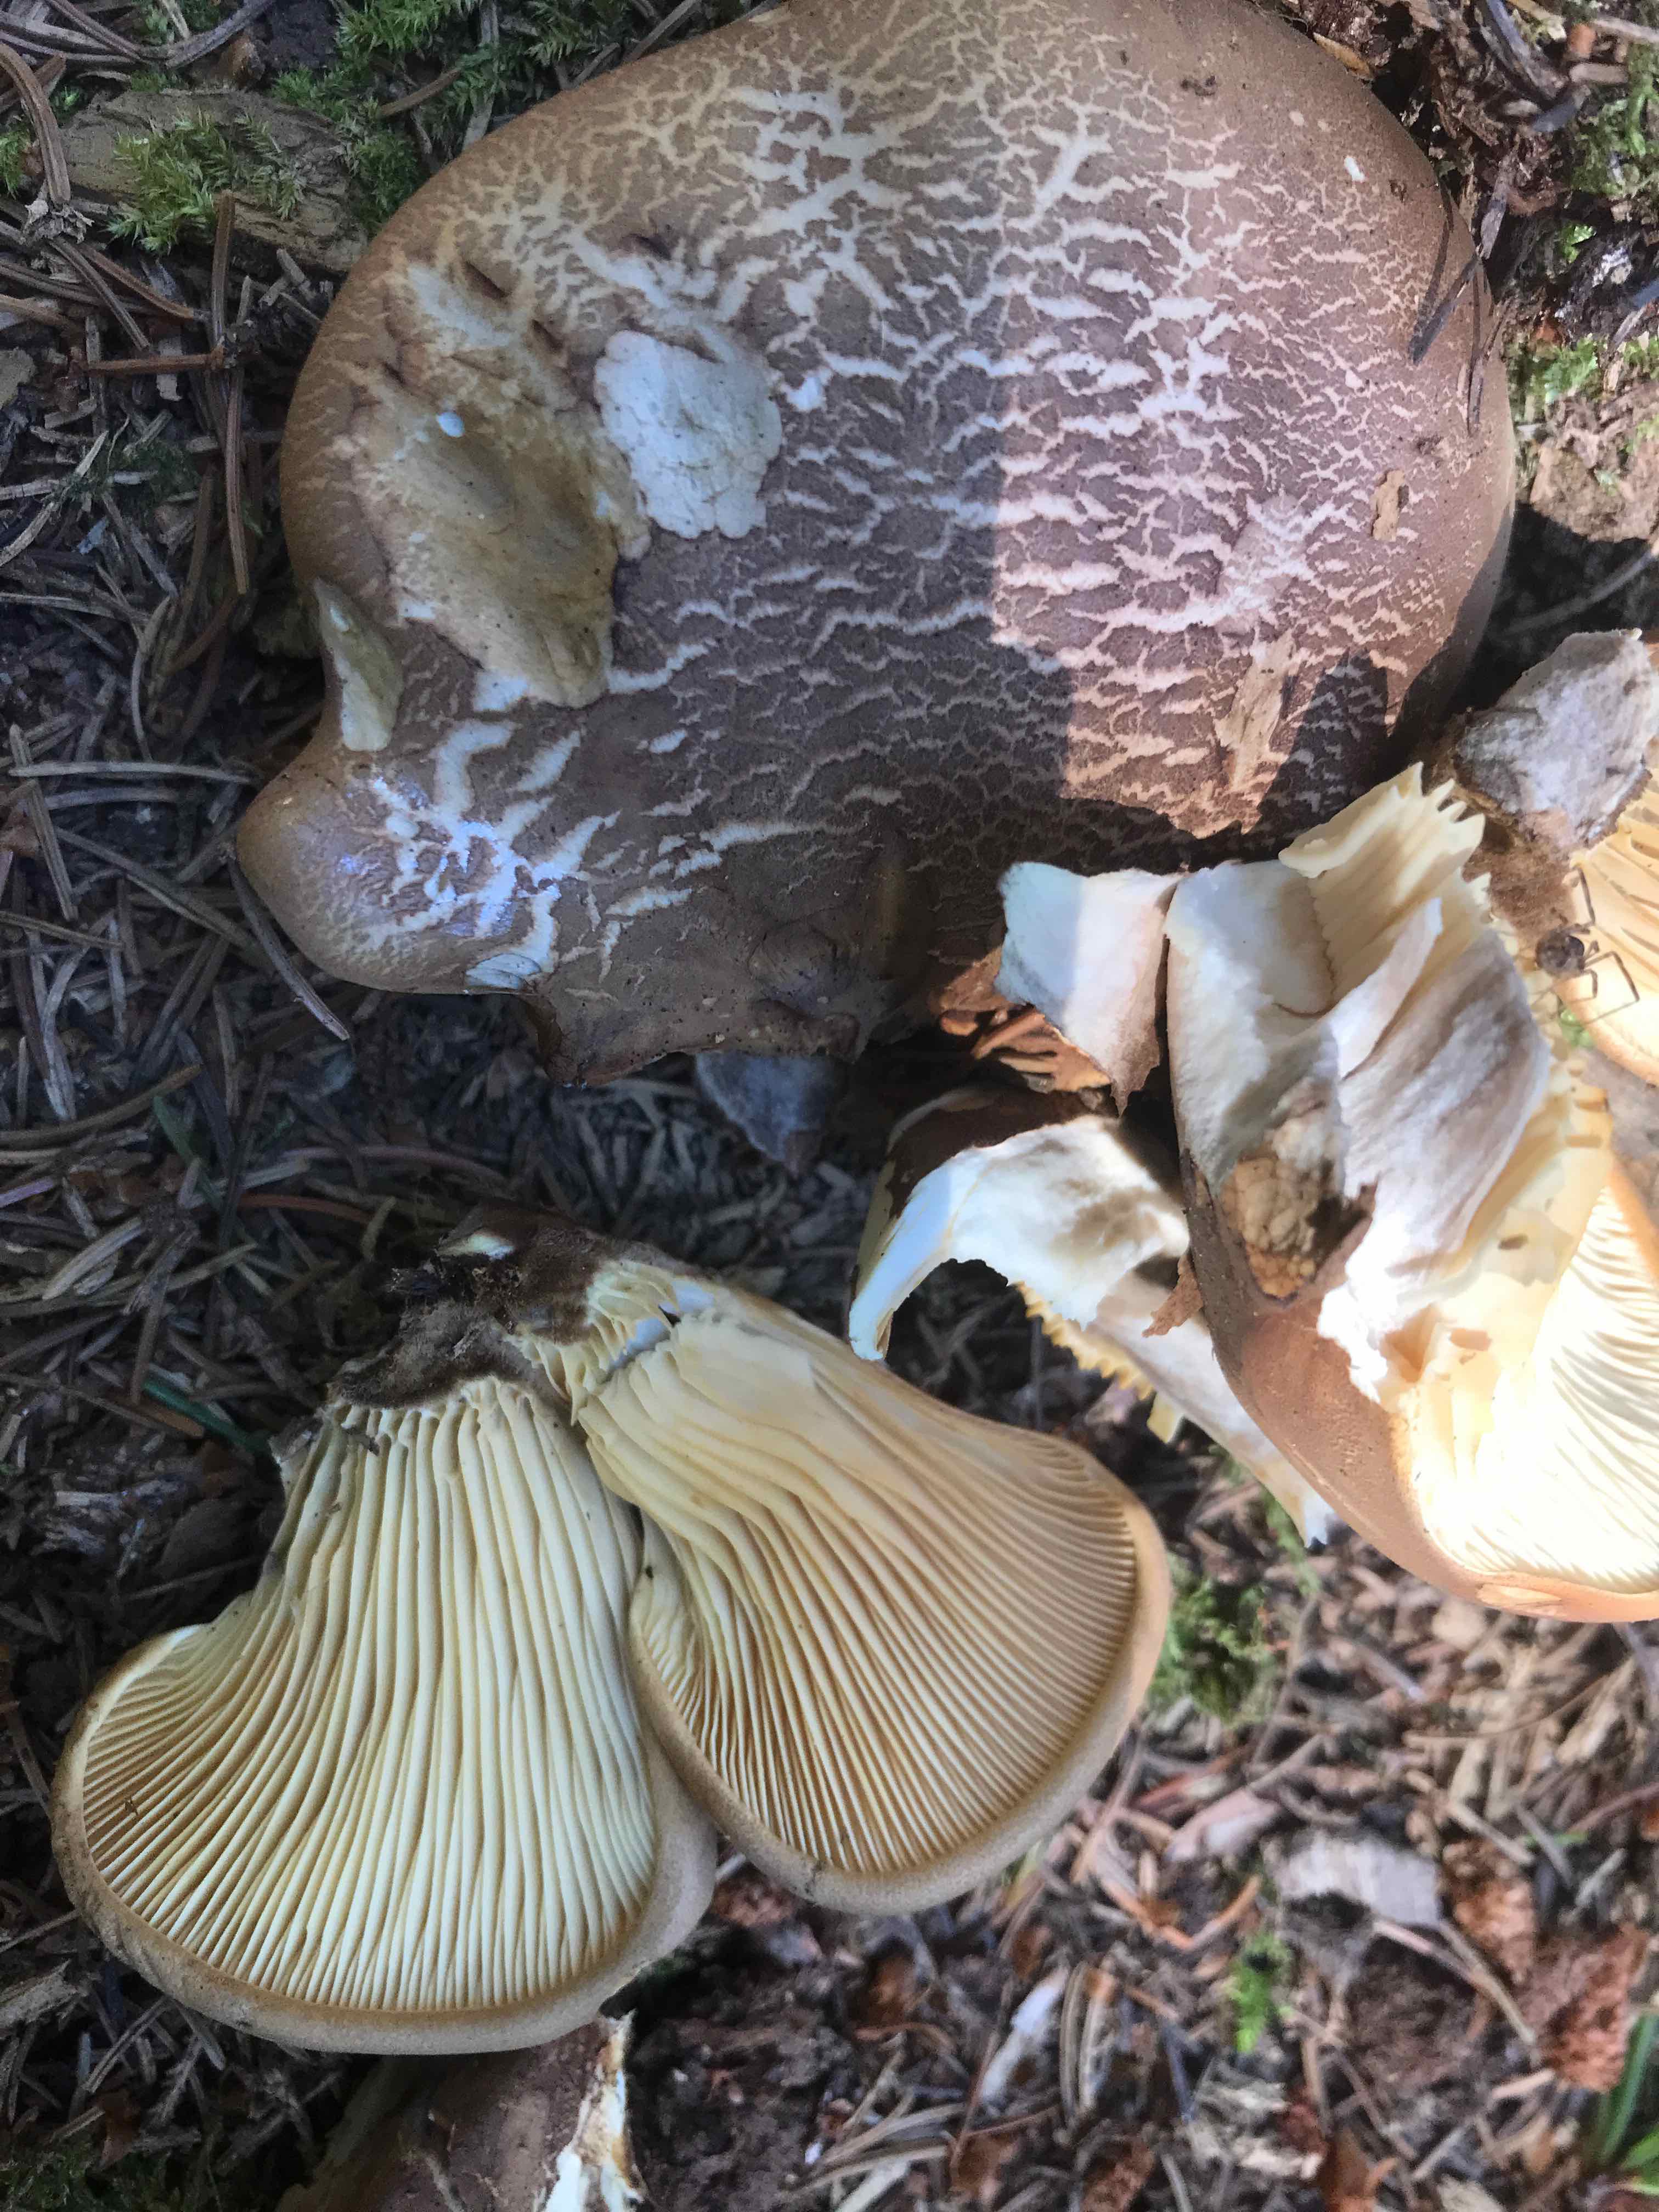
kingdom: Fungi
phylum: Basidiomycota
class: Agaricomycetes
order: Boletales
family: Tapinellaceae
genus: Tapinella
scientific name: Tapinella atrotomentosa
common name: sortfiltet viftesvamp
